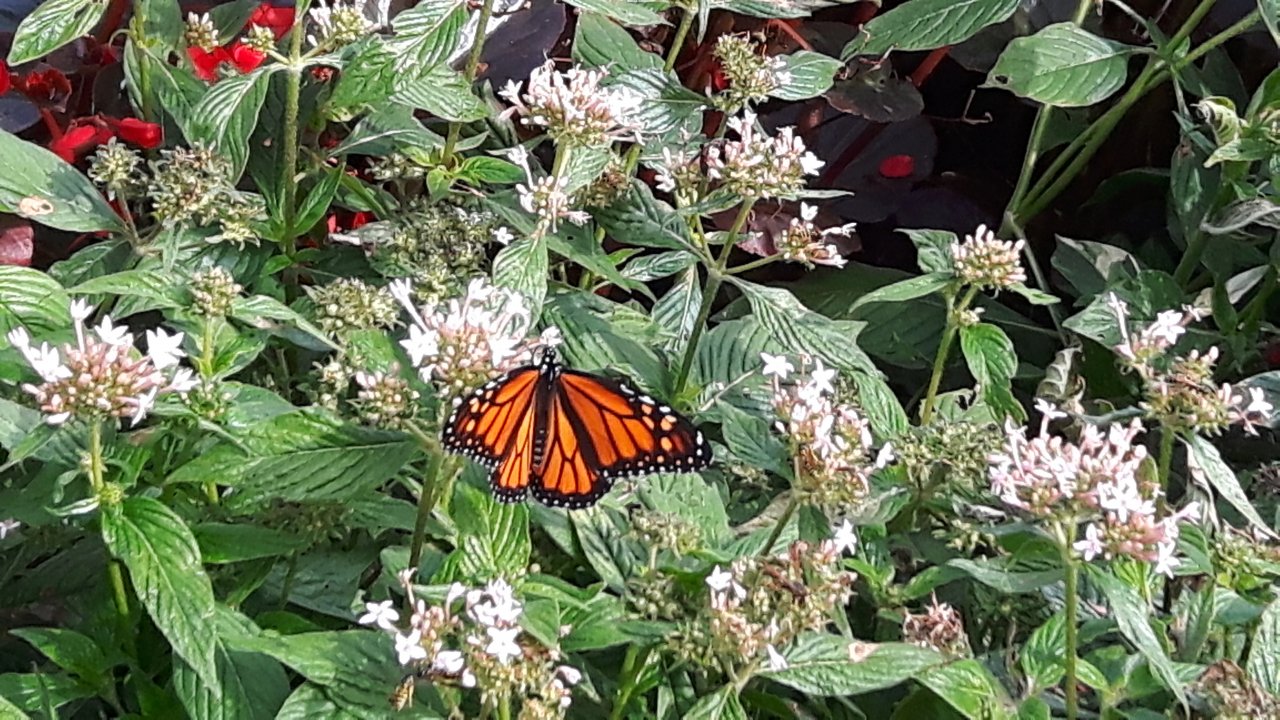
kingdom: Animalia
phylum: Arthropoda
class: Insecta
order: Lepidoptera
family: Nymphalidae
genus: Danaus
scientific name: Danaus plexippus
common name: Monarch
